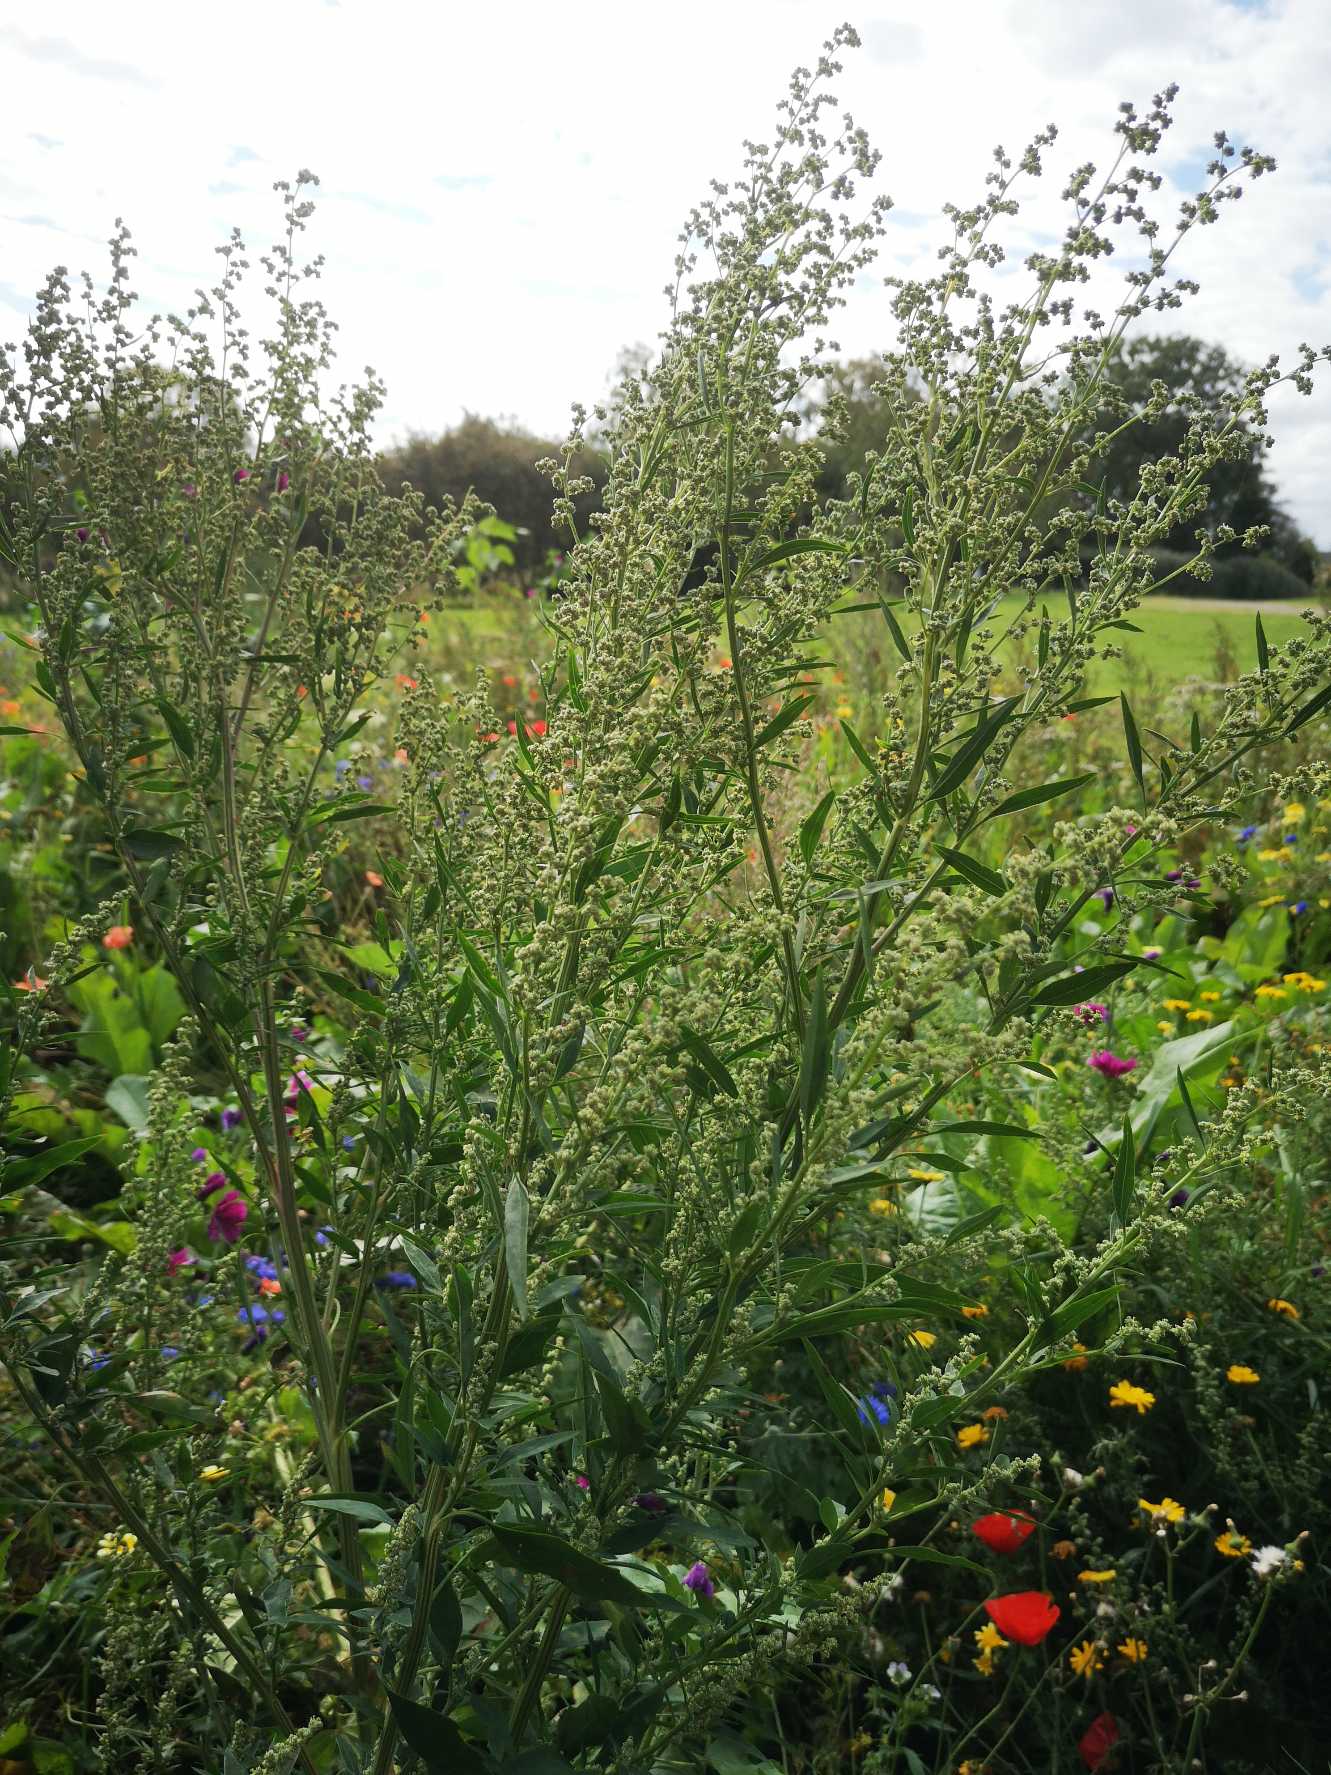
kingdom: Plantae
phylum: Tracheophyta
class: Magnoliopsida
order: Caryophyllales
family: Amaranthaceae
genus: Chenopodium
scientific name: Chenopodium pratericola
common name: Finbladet gåsefod
